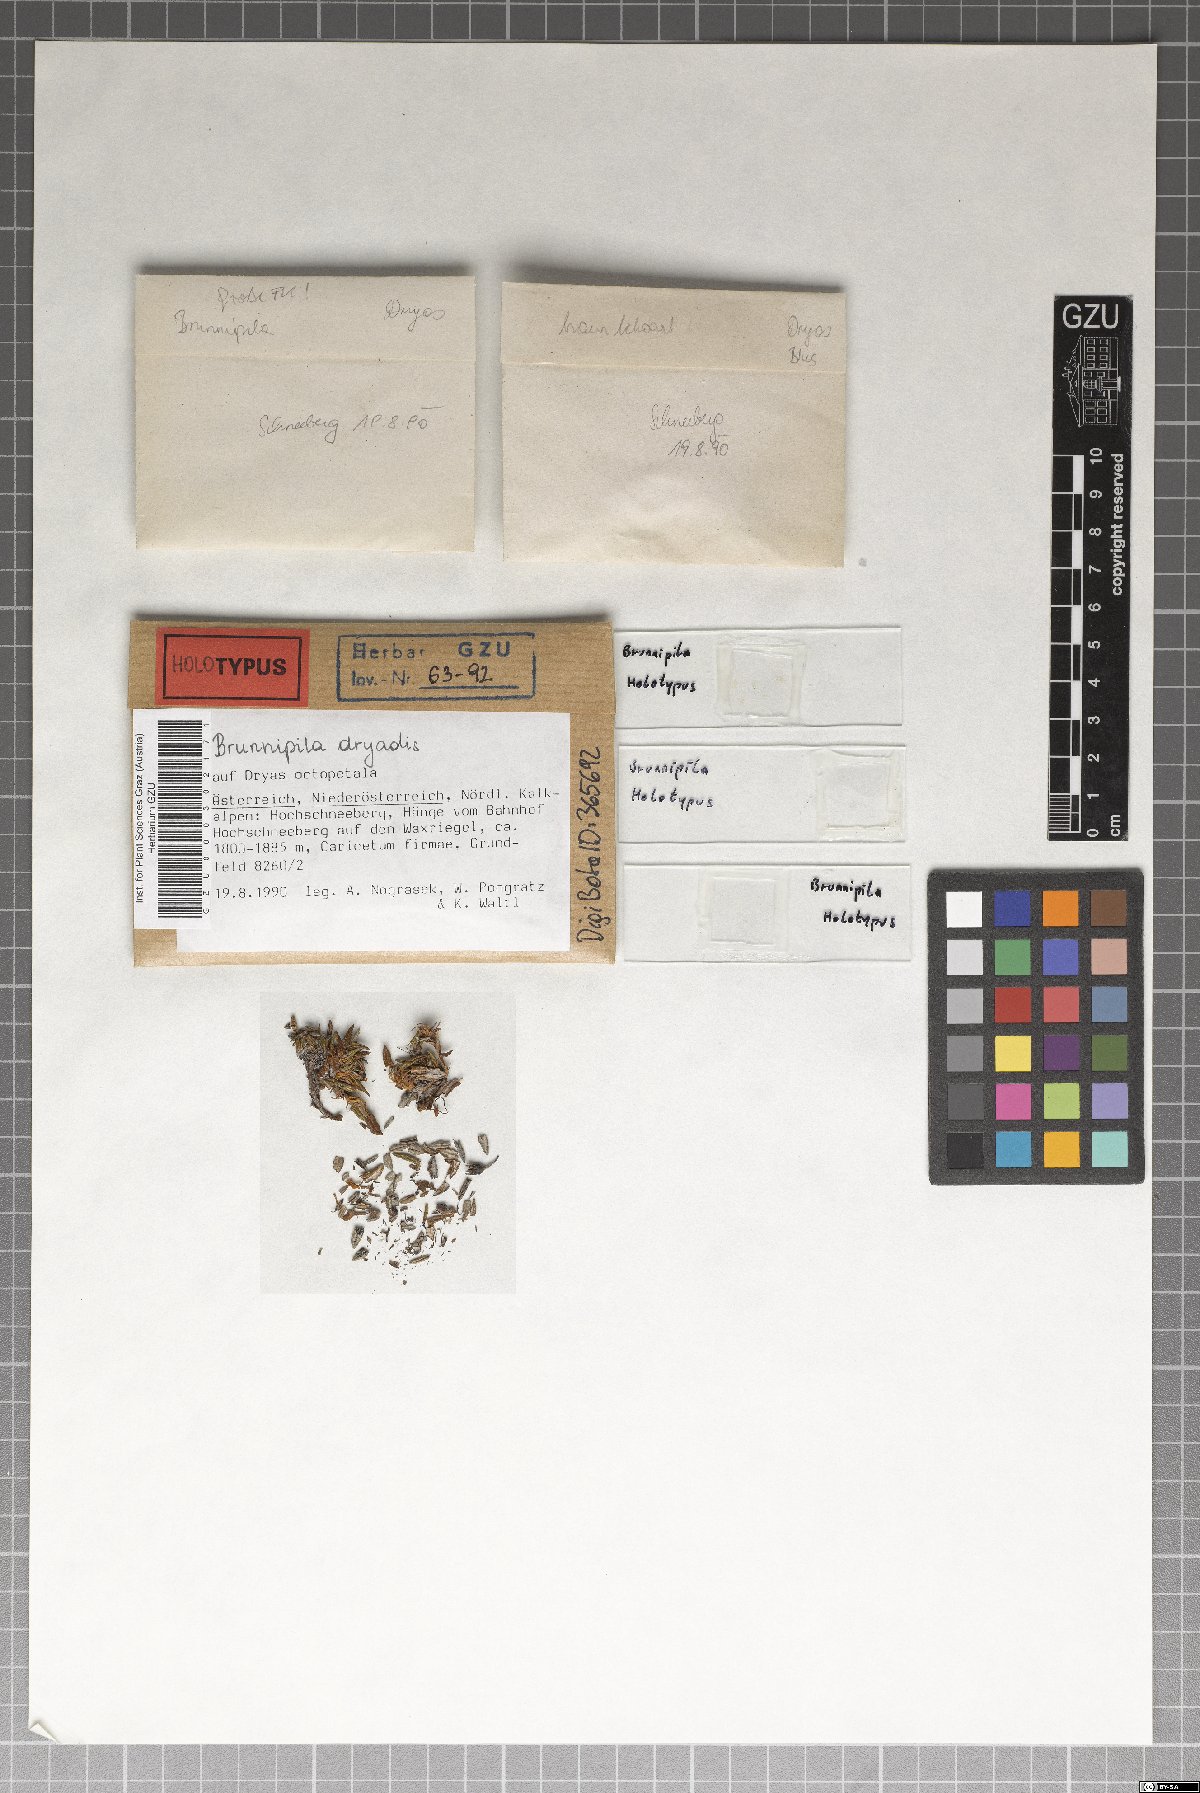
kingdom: Fungi
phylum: Ascomycota
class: Leotiomycetes
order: Helotiales
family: Lachnaceae
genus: Brunnipila
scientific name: Brunnipila dryadis
